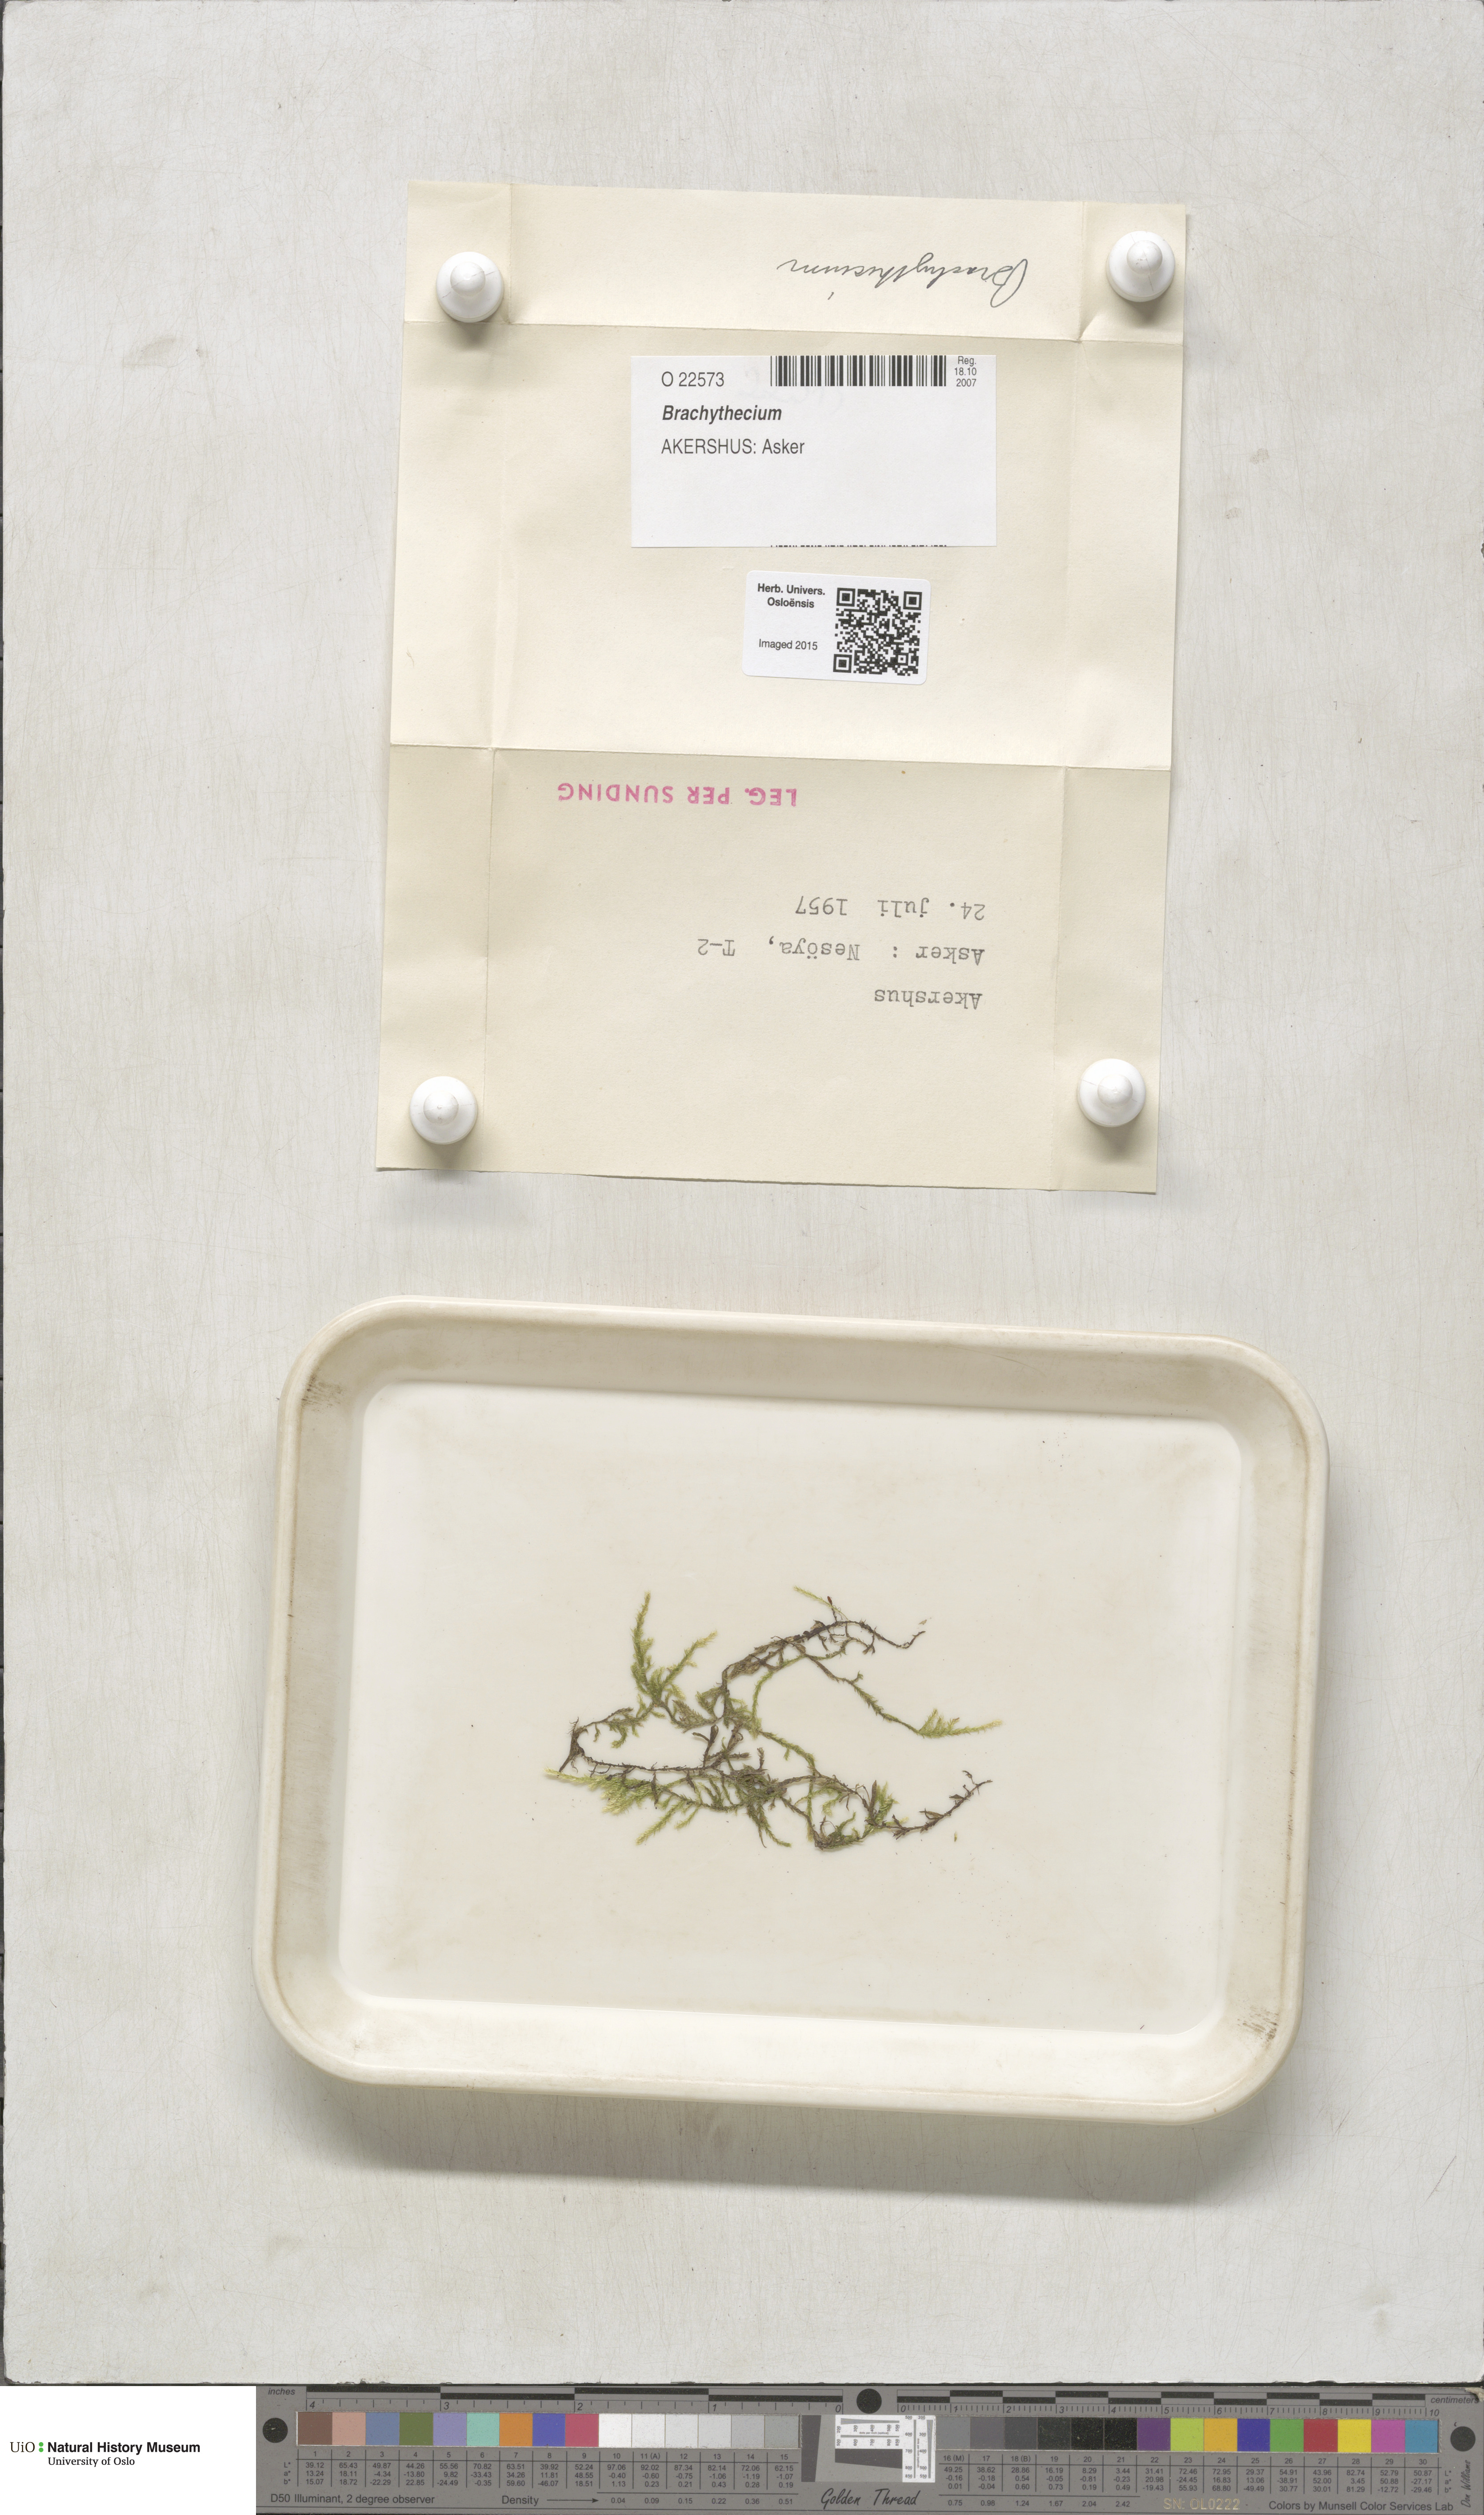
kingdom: Plantae
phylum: Bryophyta
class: Bryopsida
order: Hypnales
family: Brachytheciaceae
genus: Brachythecium
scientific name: Brachythecium
